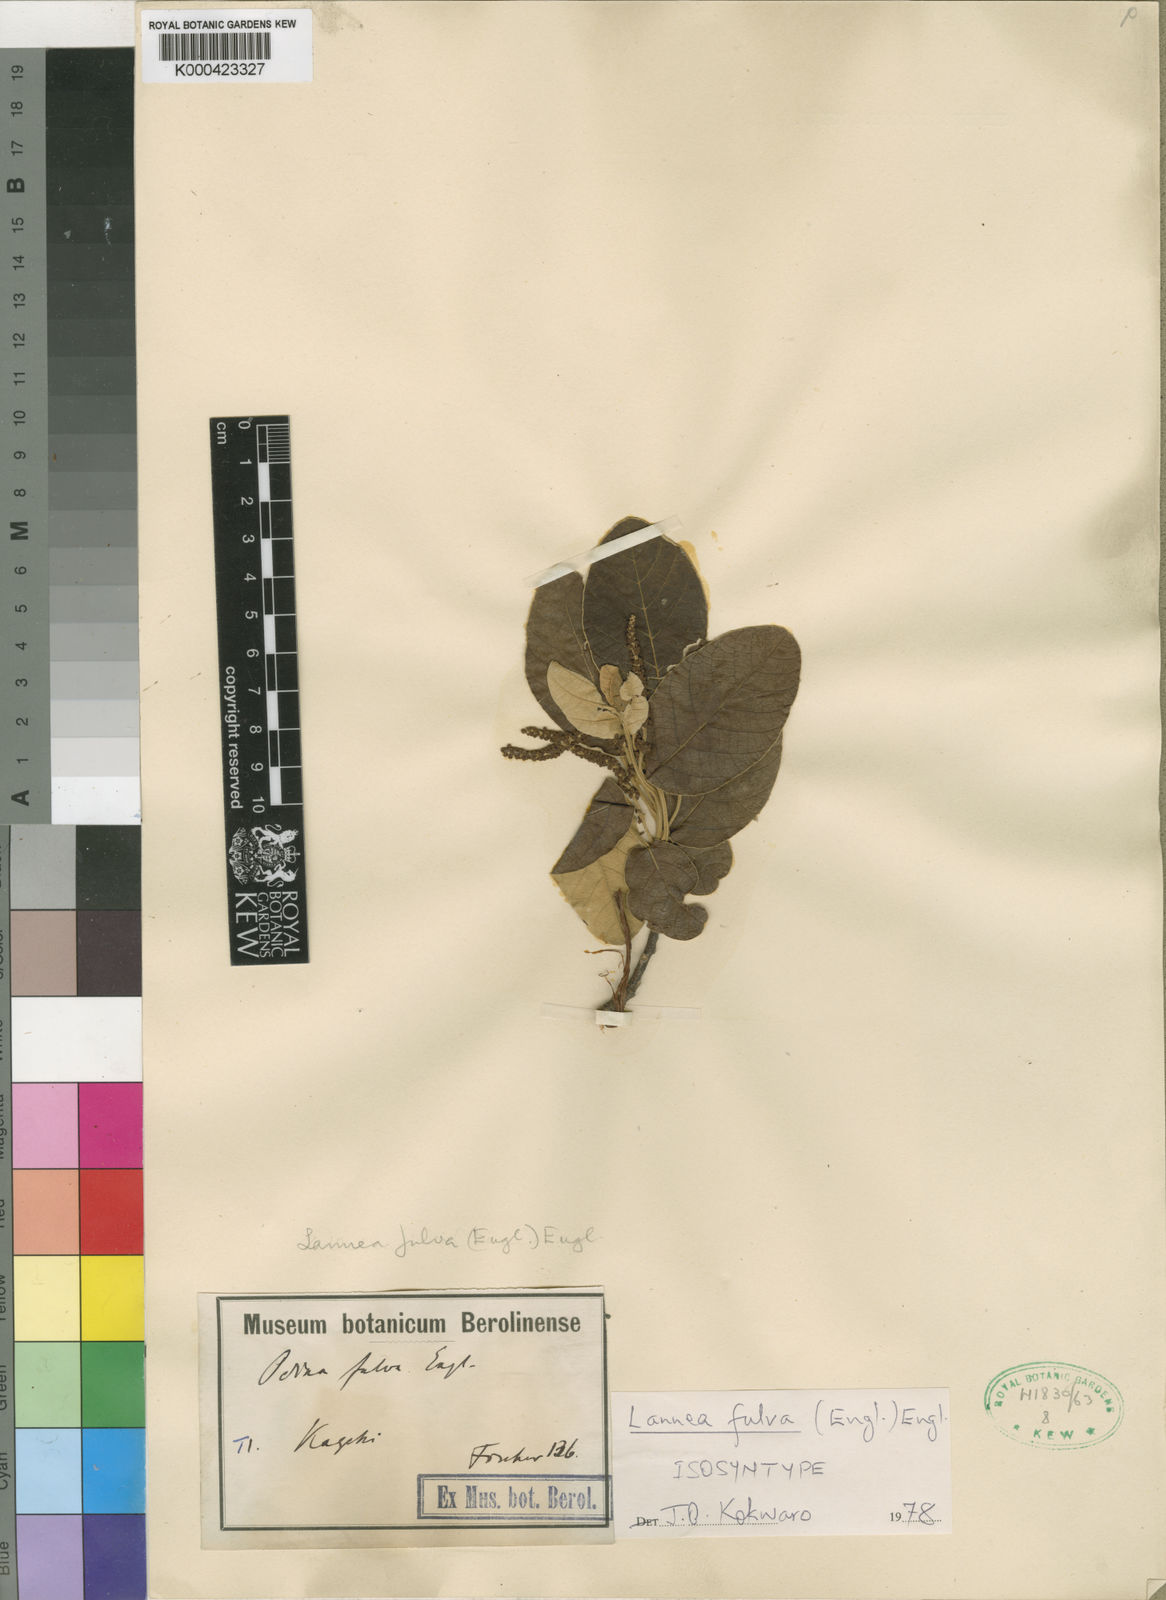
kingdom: Plantae
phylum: Tracheophyta
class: Magnoliopsida
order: Sapindales
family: Anacardiaceae
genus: Lannea
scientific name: Lannea fulva
